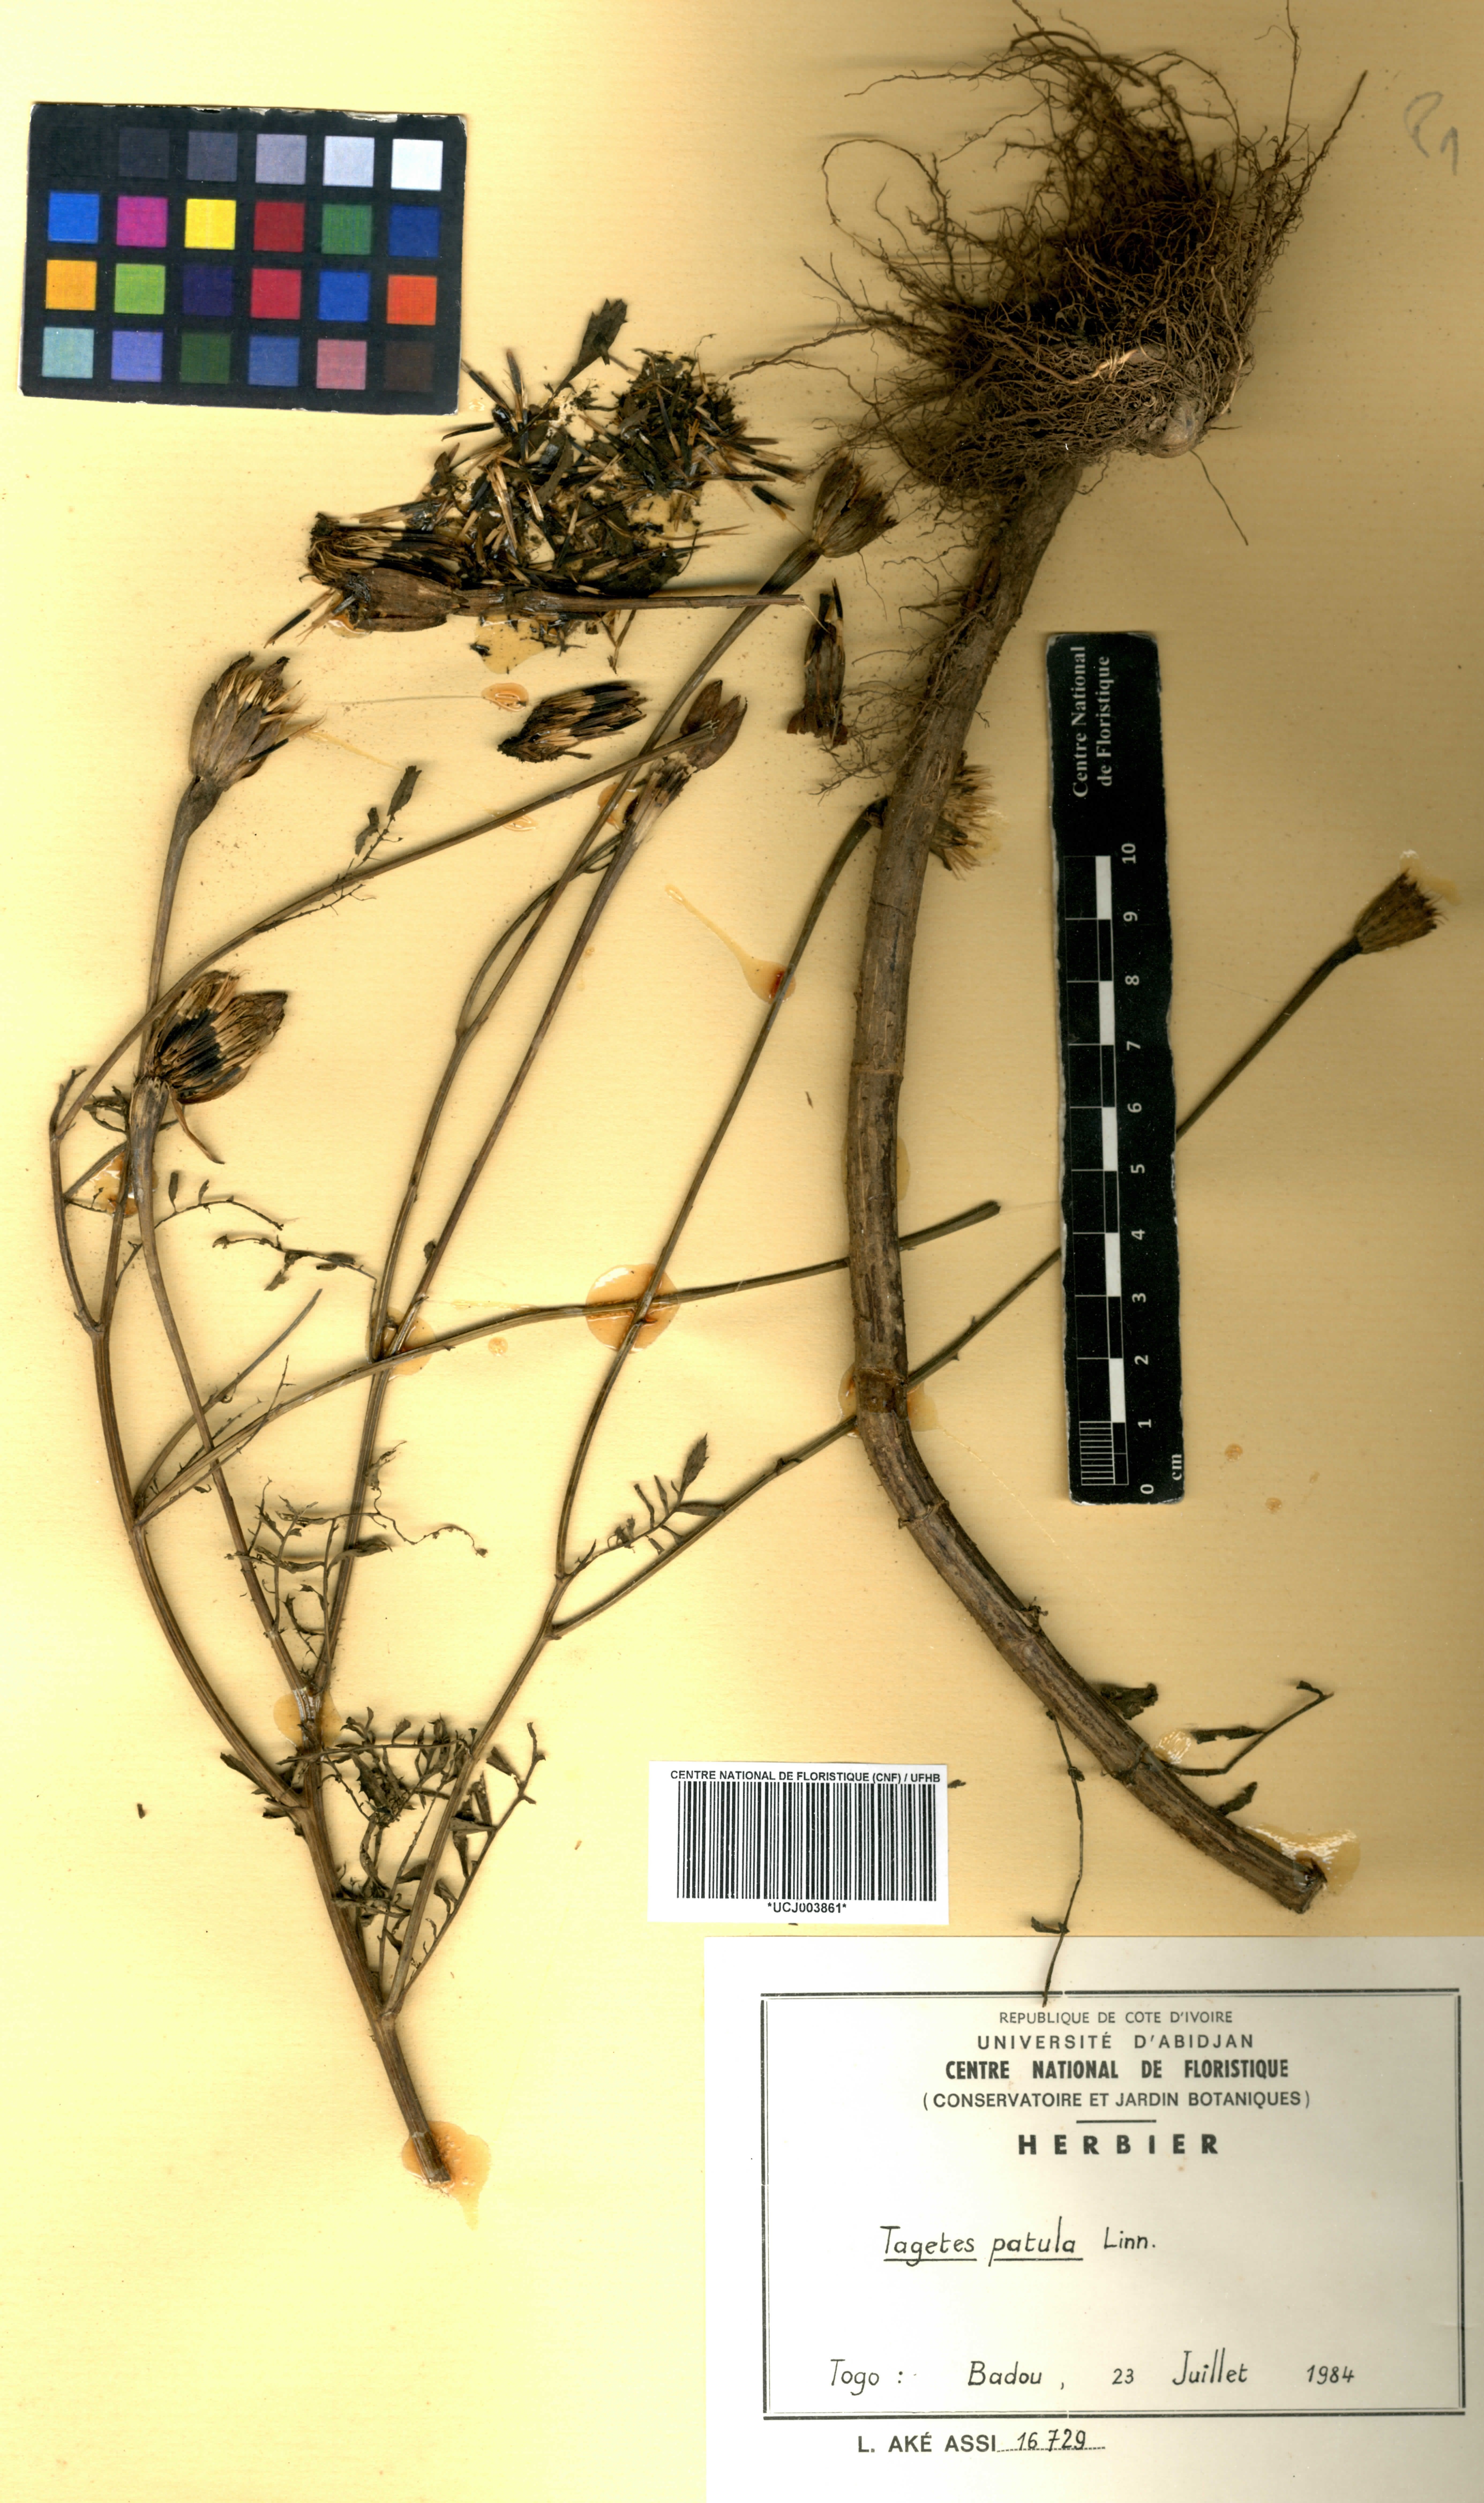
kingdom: Plantae
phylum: Tracheophyta
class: Magnoliopsida
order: Asterales
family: Asteraceae
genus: Tagetes
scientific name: Tagetes erecta
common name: African marigold
